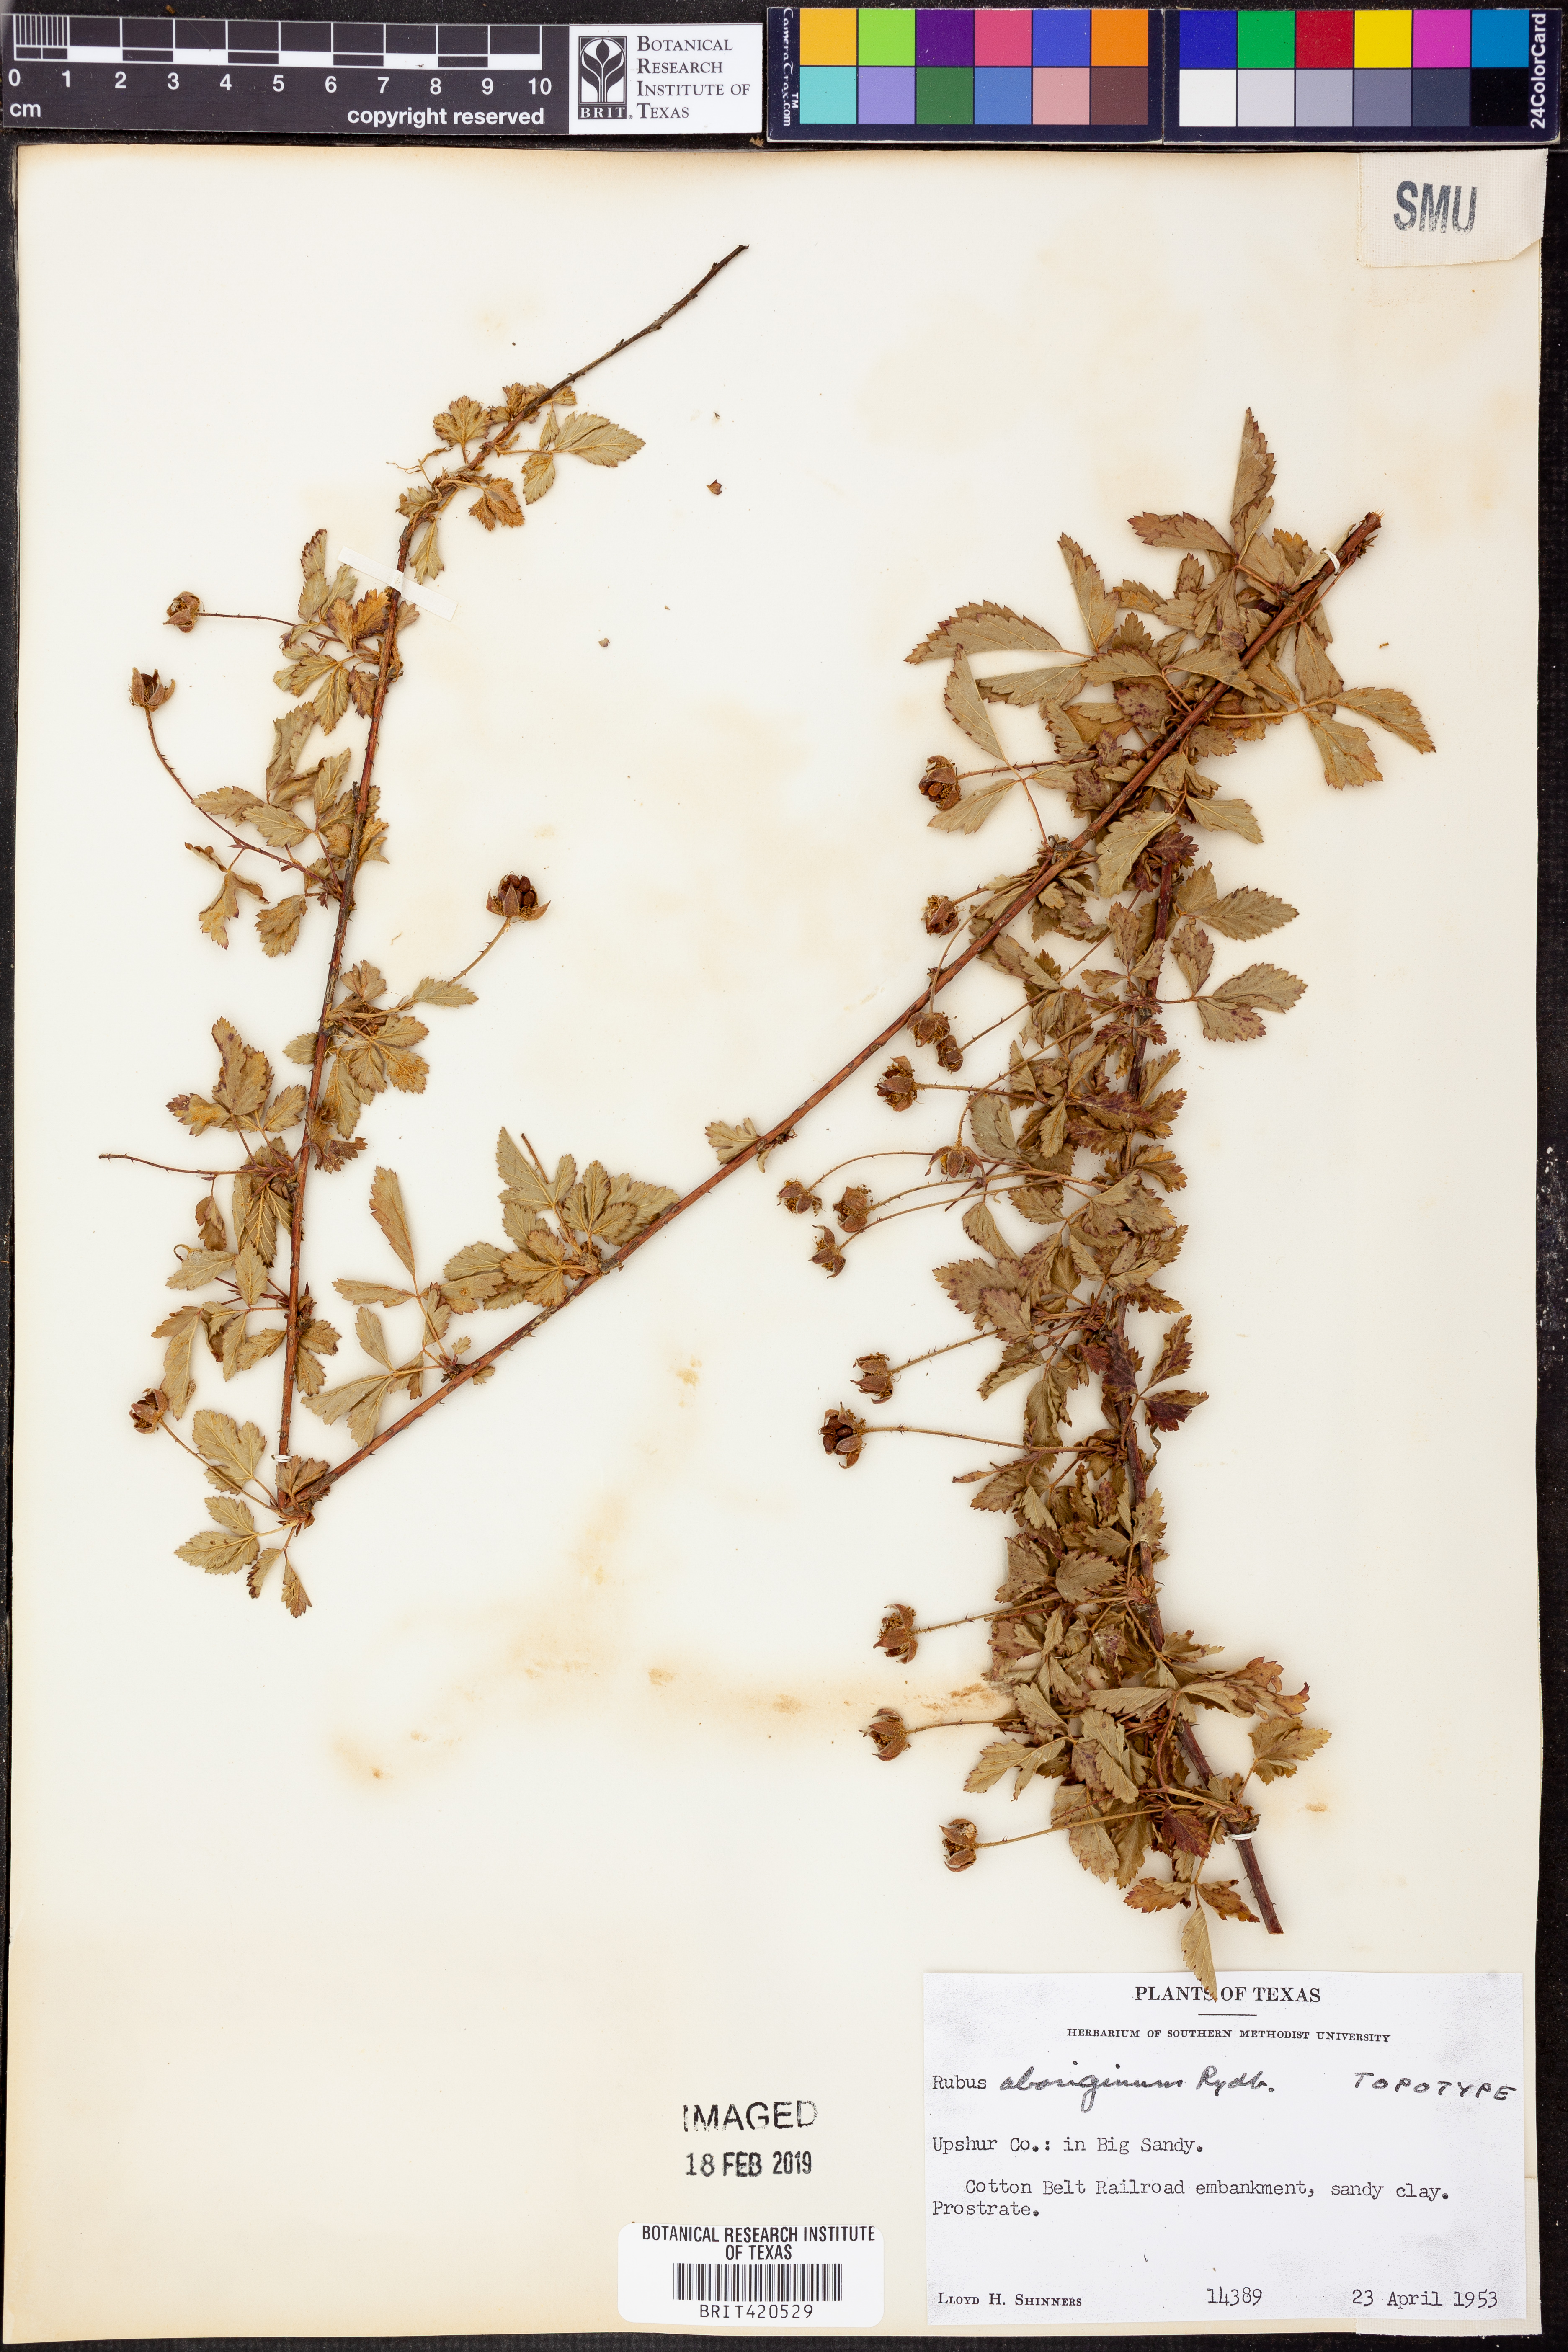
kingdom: Plantae
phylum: Tracheophyta
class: Magnoliopsida
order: Rosales
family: Rosaceae
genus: Rubus
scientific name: Rubus
